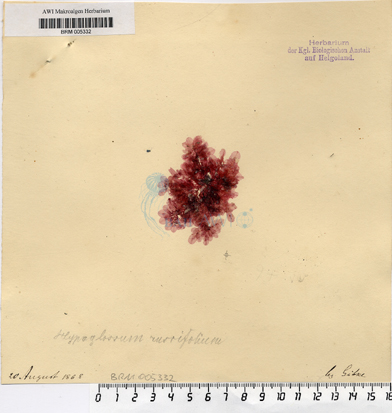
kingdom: Plantae
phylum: Rhodophyta
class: Florideophyceae
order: Ceramiales
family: Delesseriaceae
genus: Hypoglossum
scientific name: Hypoglossum
